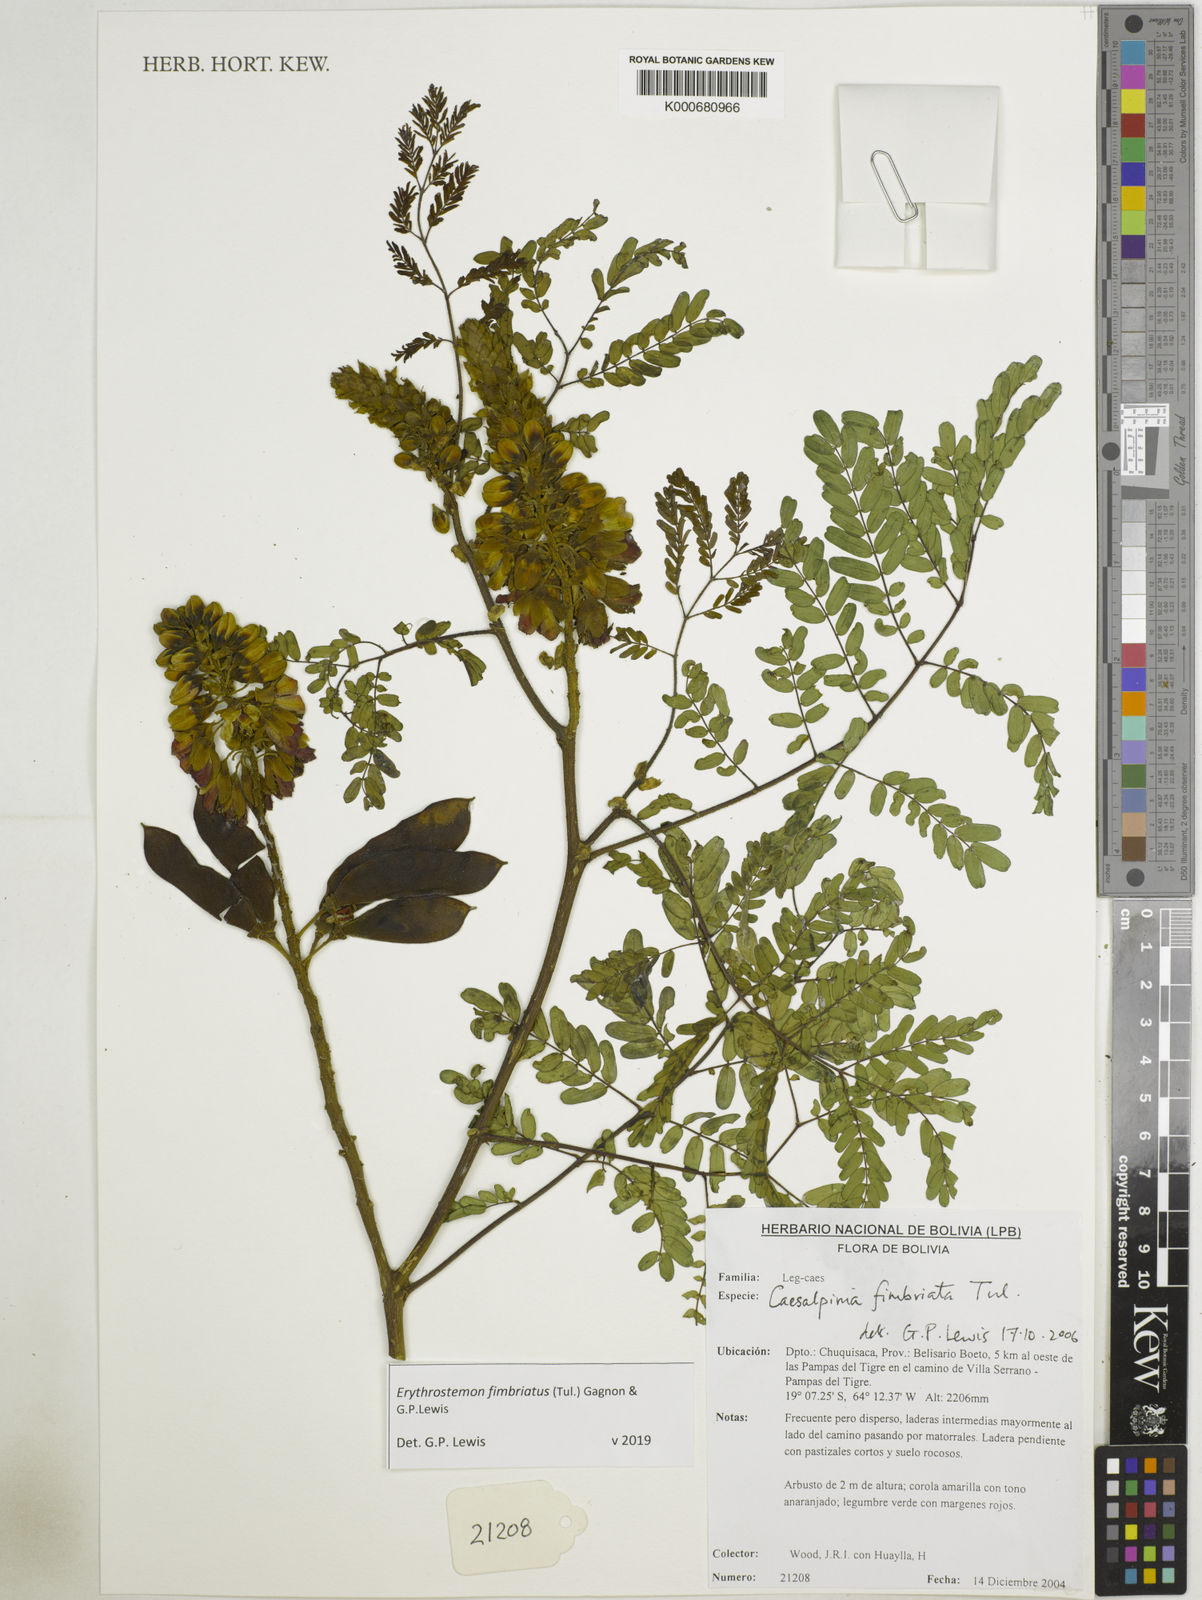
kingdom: Plantae
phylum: Tracheophyta
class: Magnoliopsida
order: Fabales
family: Fabaceae
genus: Erythrostemon
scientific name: Erythrostemon fimbriatus
